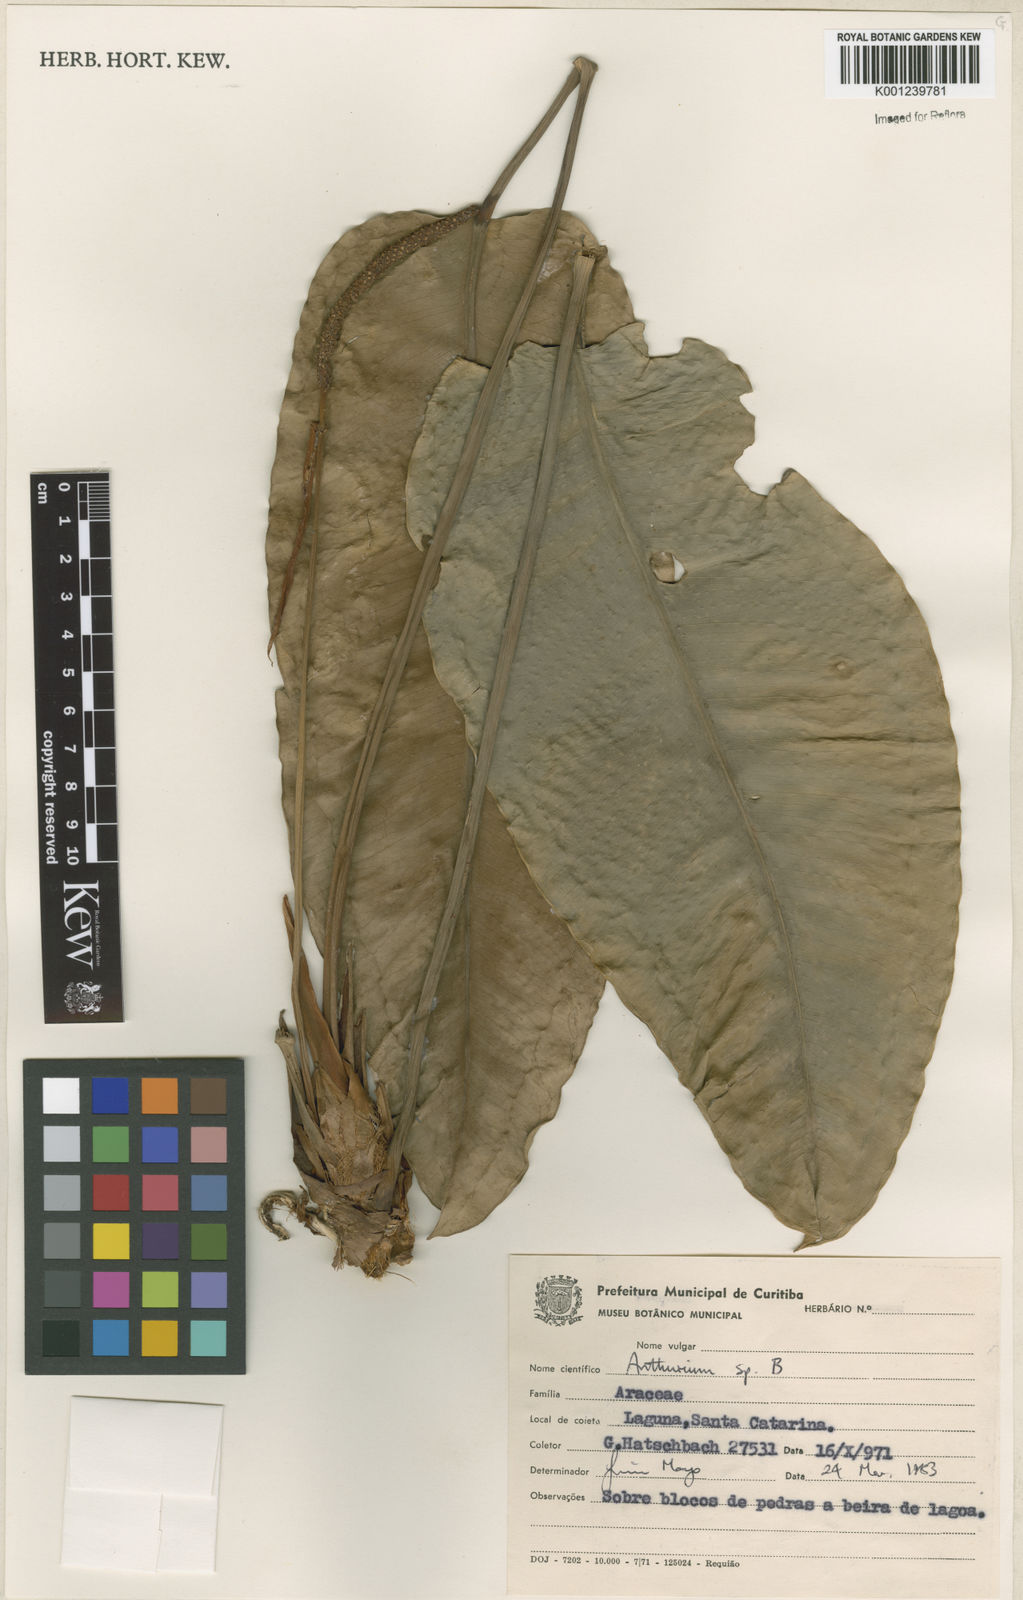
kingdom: Plantae
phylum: Tracheophyta
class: Liliopsida
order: Alismatales
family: Araceae
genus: Anthurium
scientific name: Anthurium
